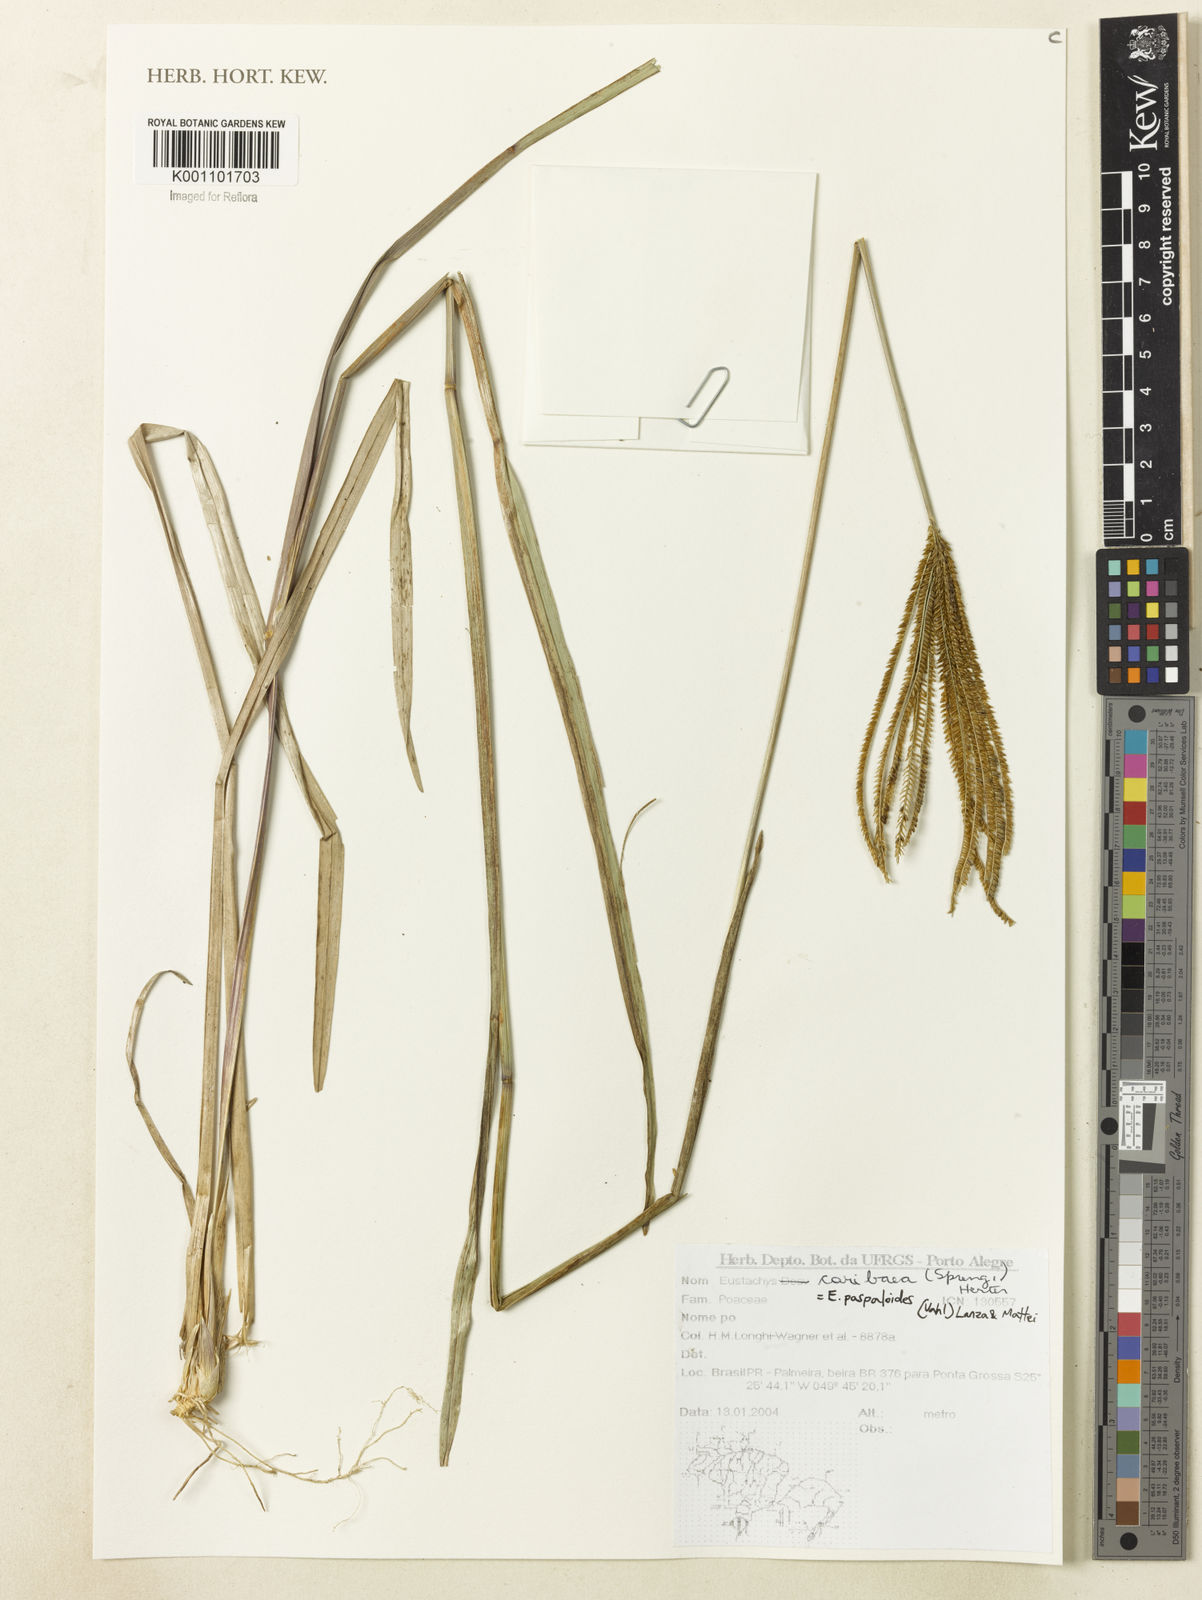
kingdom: Plantae
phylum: Tracheophyta
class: Liliopsida
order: Poales
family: Poaceae
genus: Eustachys
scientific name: Eustachys paspaloides
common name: Caribbean fingergrass
